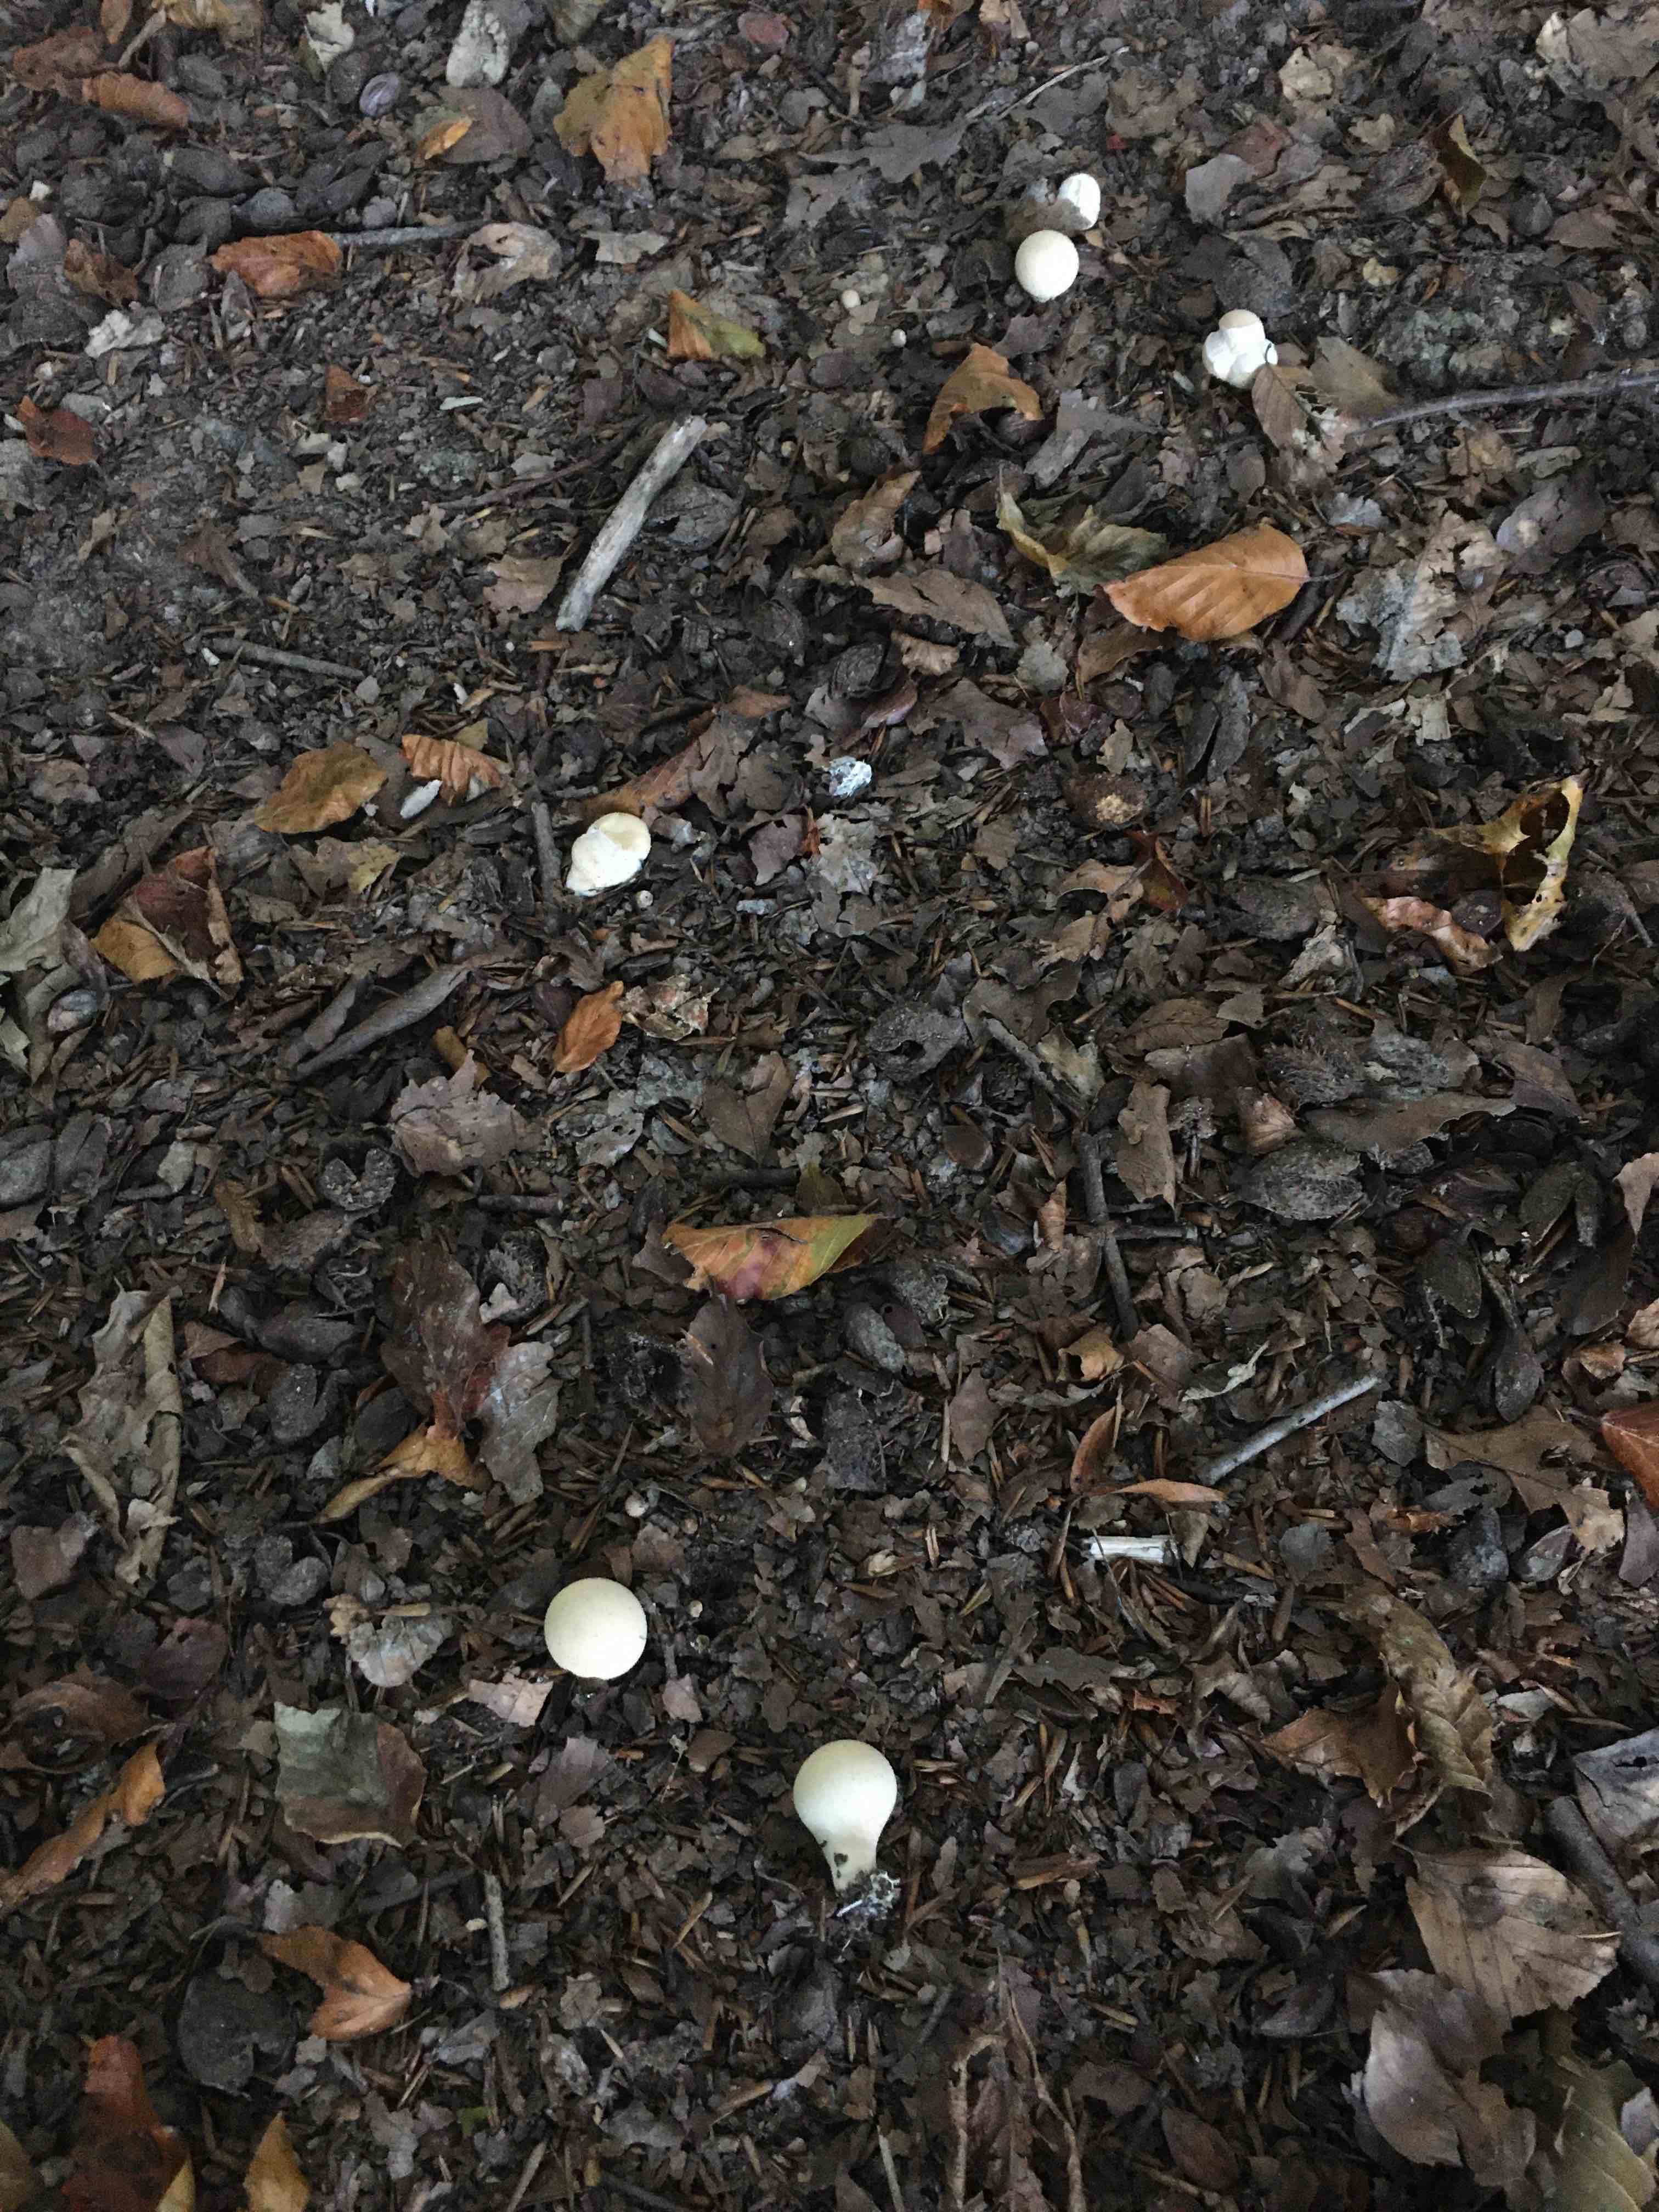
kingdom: Fungi
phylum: Basidiomycota
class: Agaricomycetes
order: Agaricales
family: Lycoperdaceae
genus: Apioperdon
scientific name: Apioperdon pyriforme
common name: pære-støvbold
